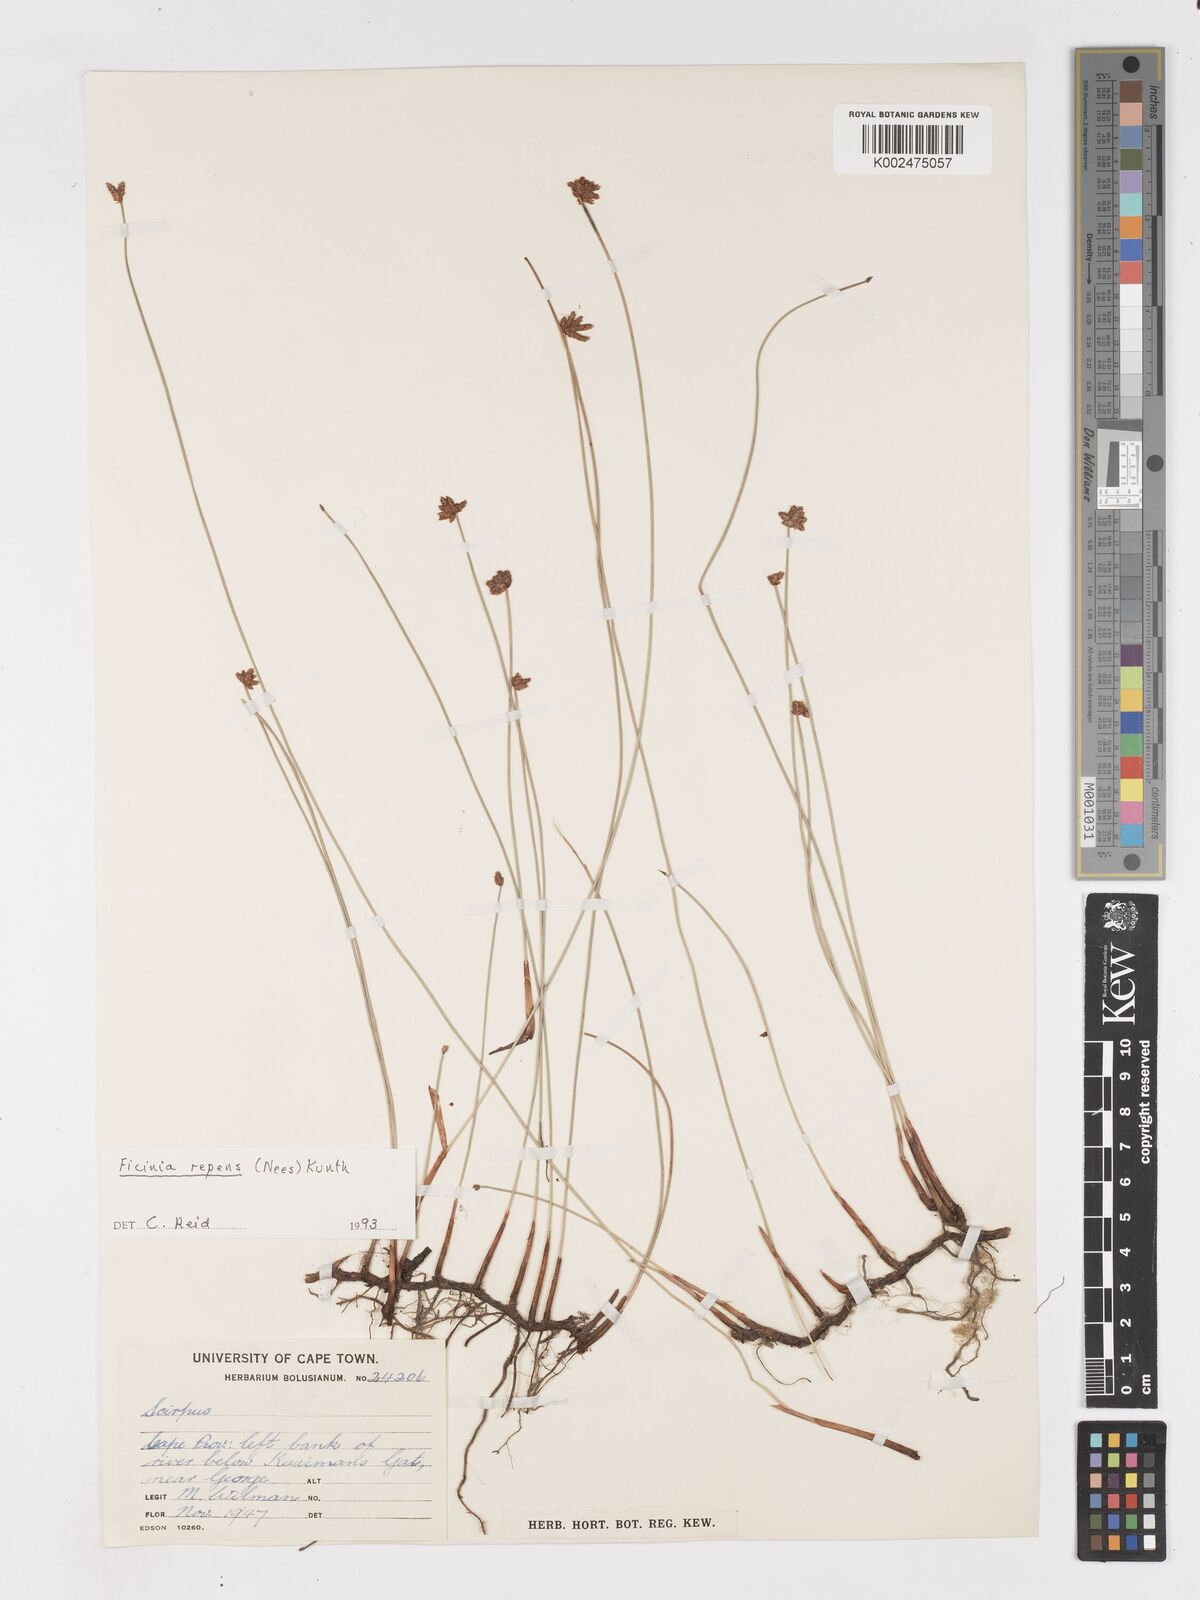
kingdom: Plantae
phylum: Tracheophyta
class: Liliopsida
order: Poales
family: Cyperaceae
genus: Ficinia
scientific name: Ficinia repens
